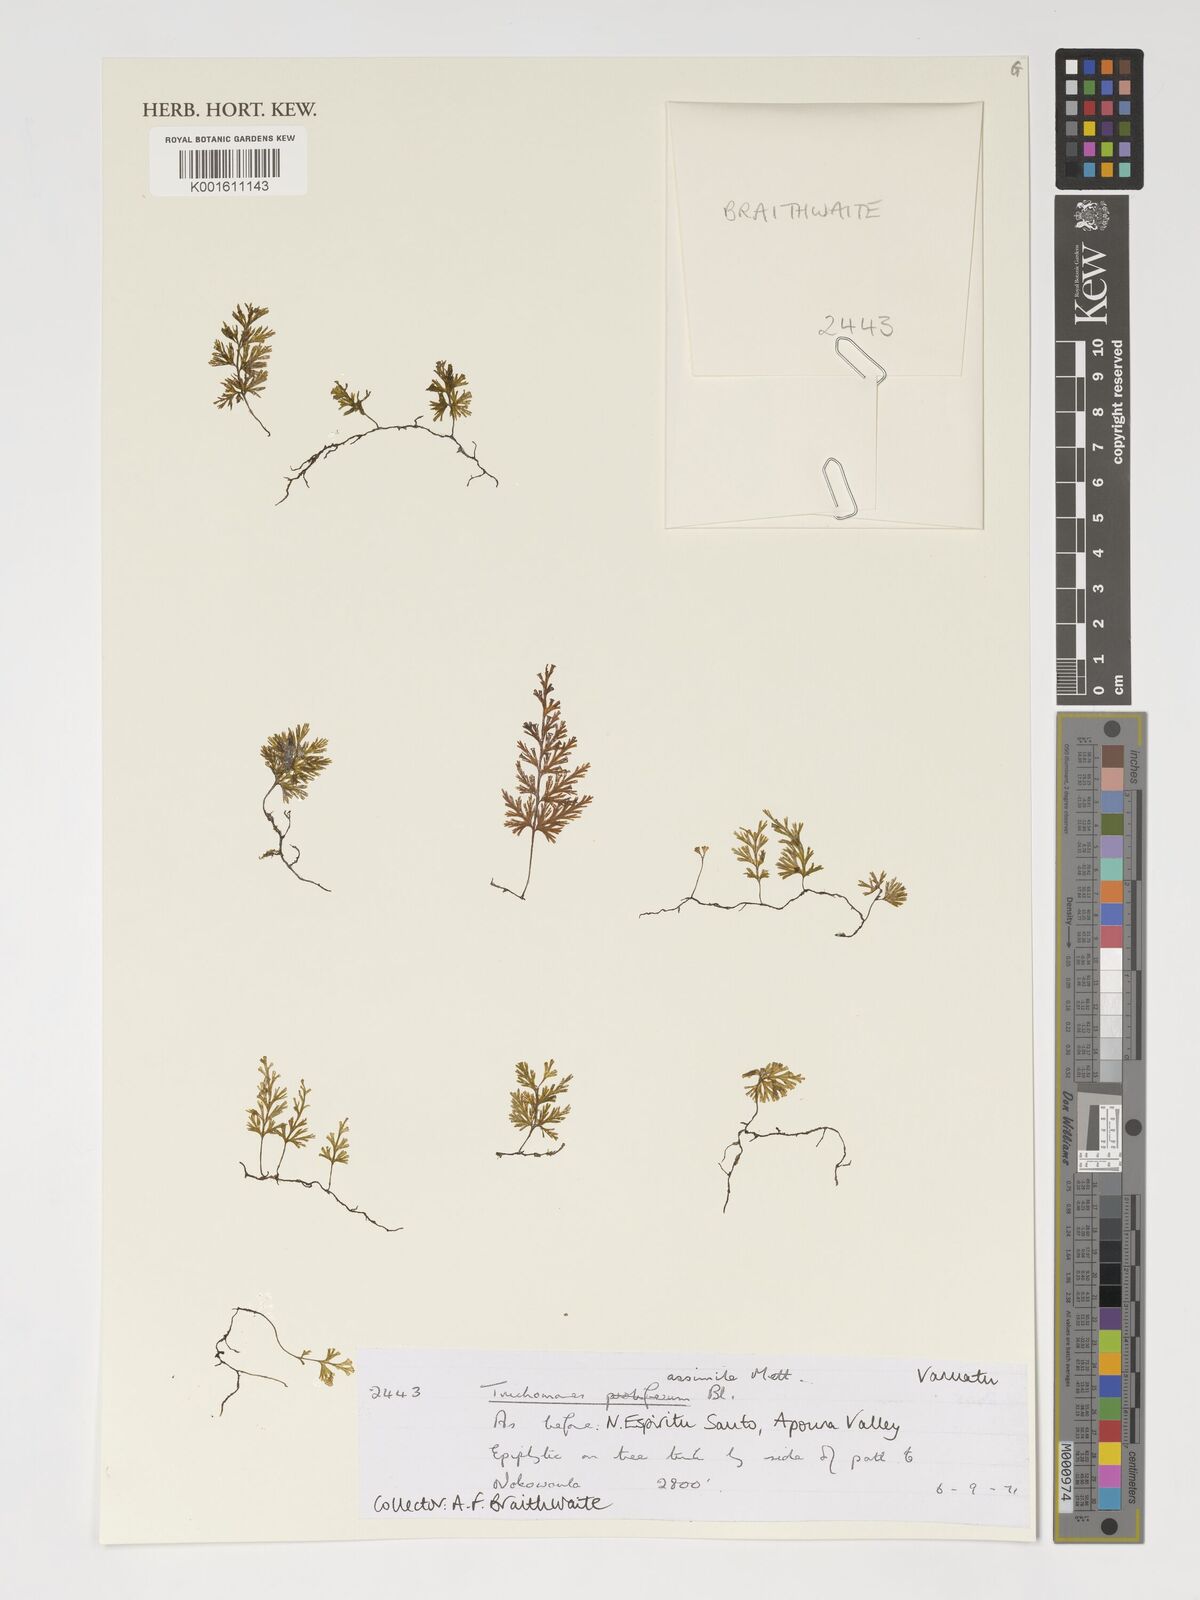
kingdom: Plantae
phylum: Tracheophyta
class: Polypodiopsida
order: Hymenophyllales
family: Hymenophyllaceae
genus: Crepidomanes
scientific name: Crepidomanes assimilis
